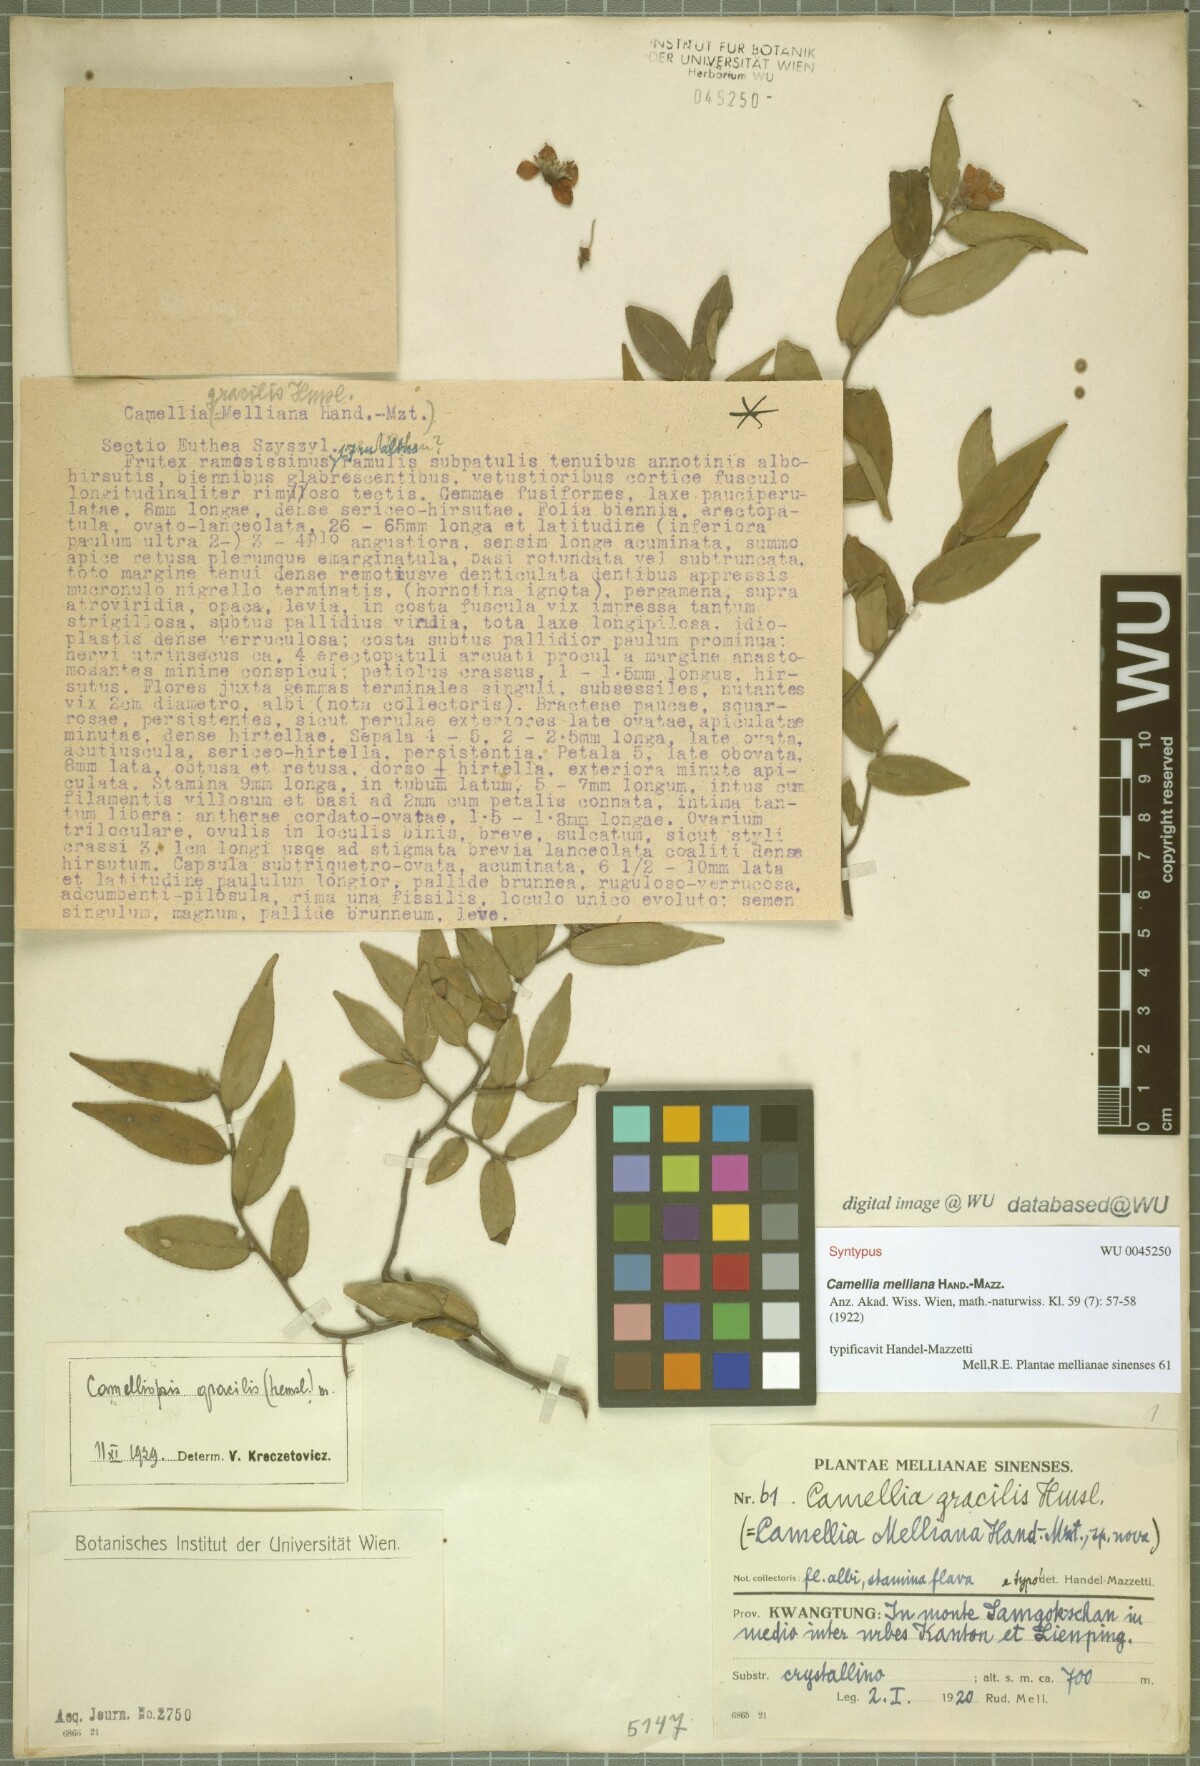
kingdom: Plantae
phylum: Tracheophyta
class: Magnoliopsida
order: Ericales
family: Theaceae
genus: Camellia
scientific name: Camellia melliana
